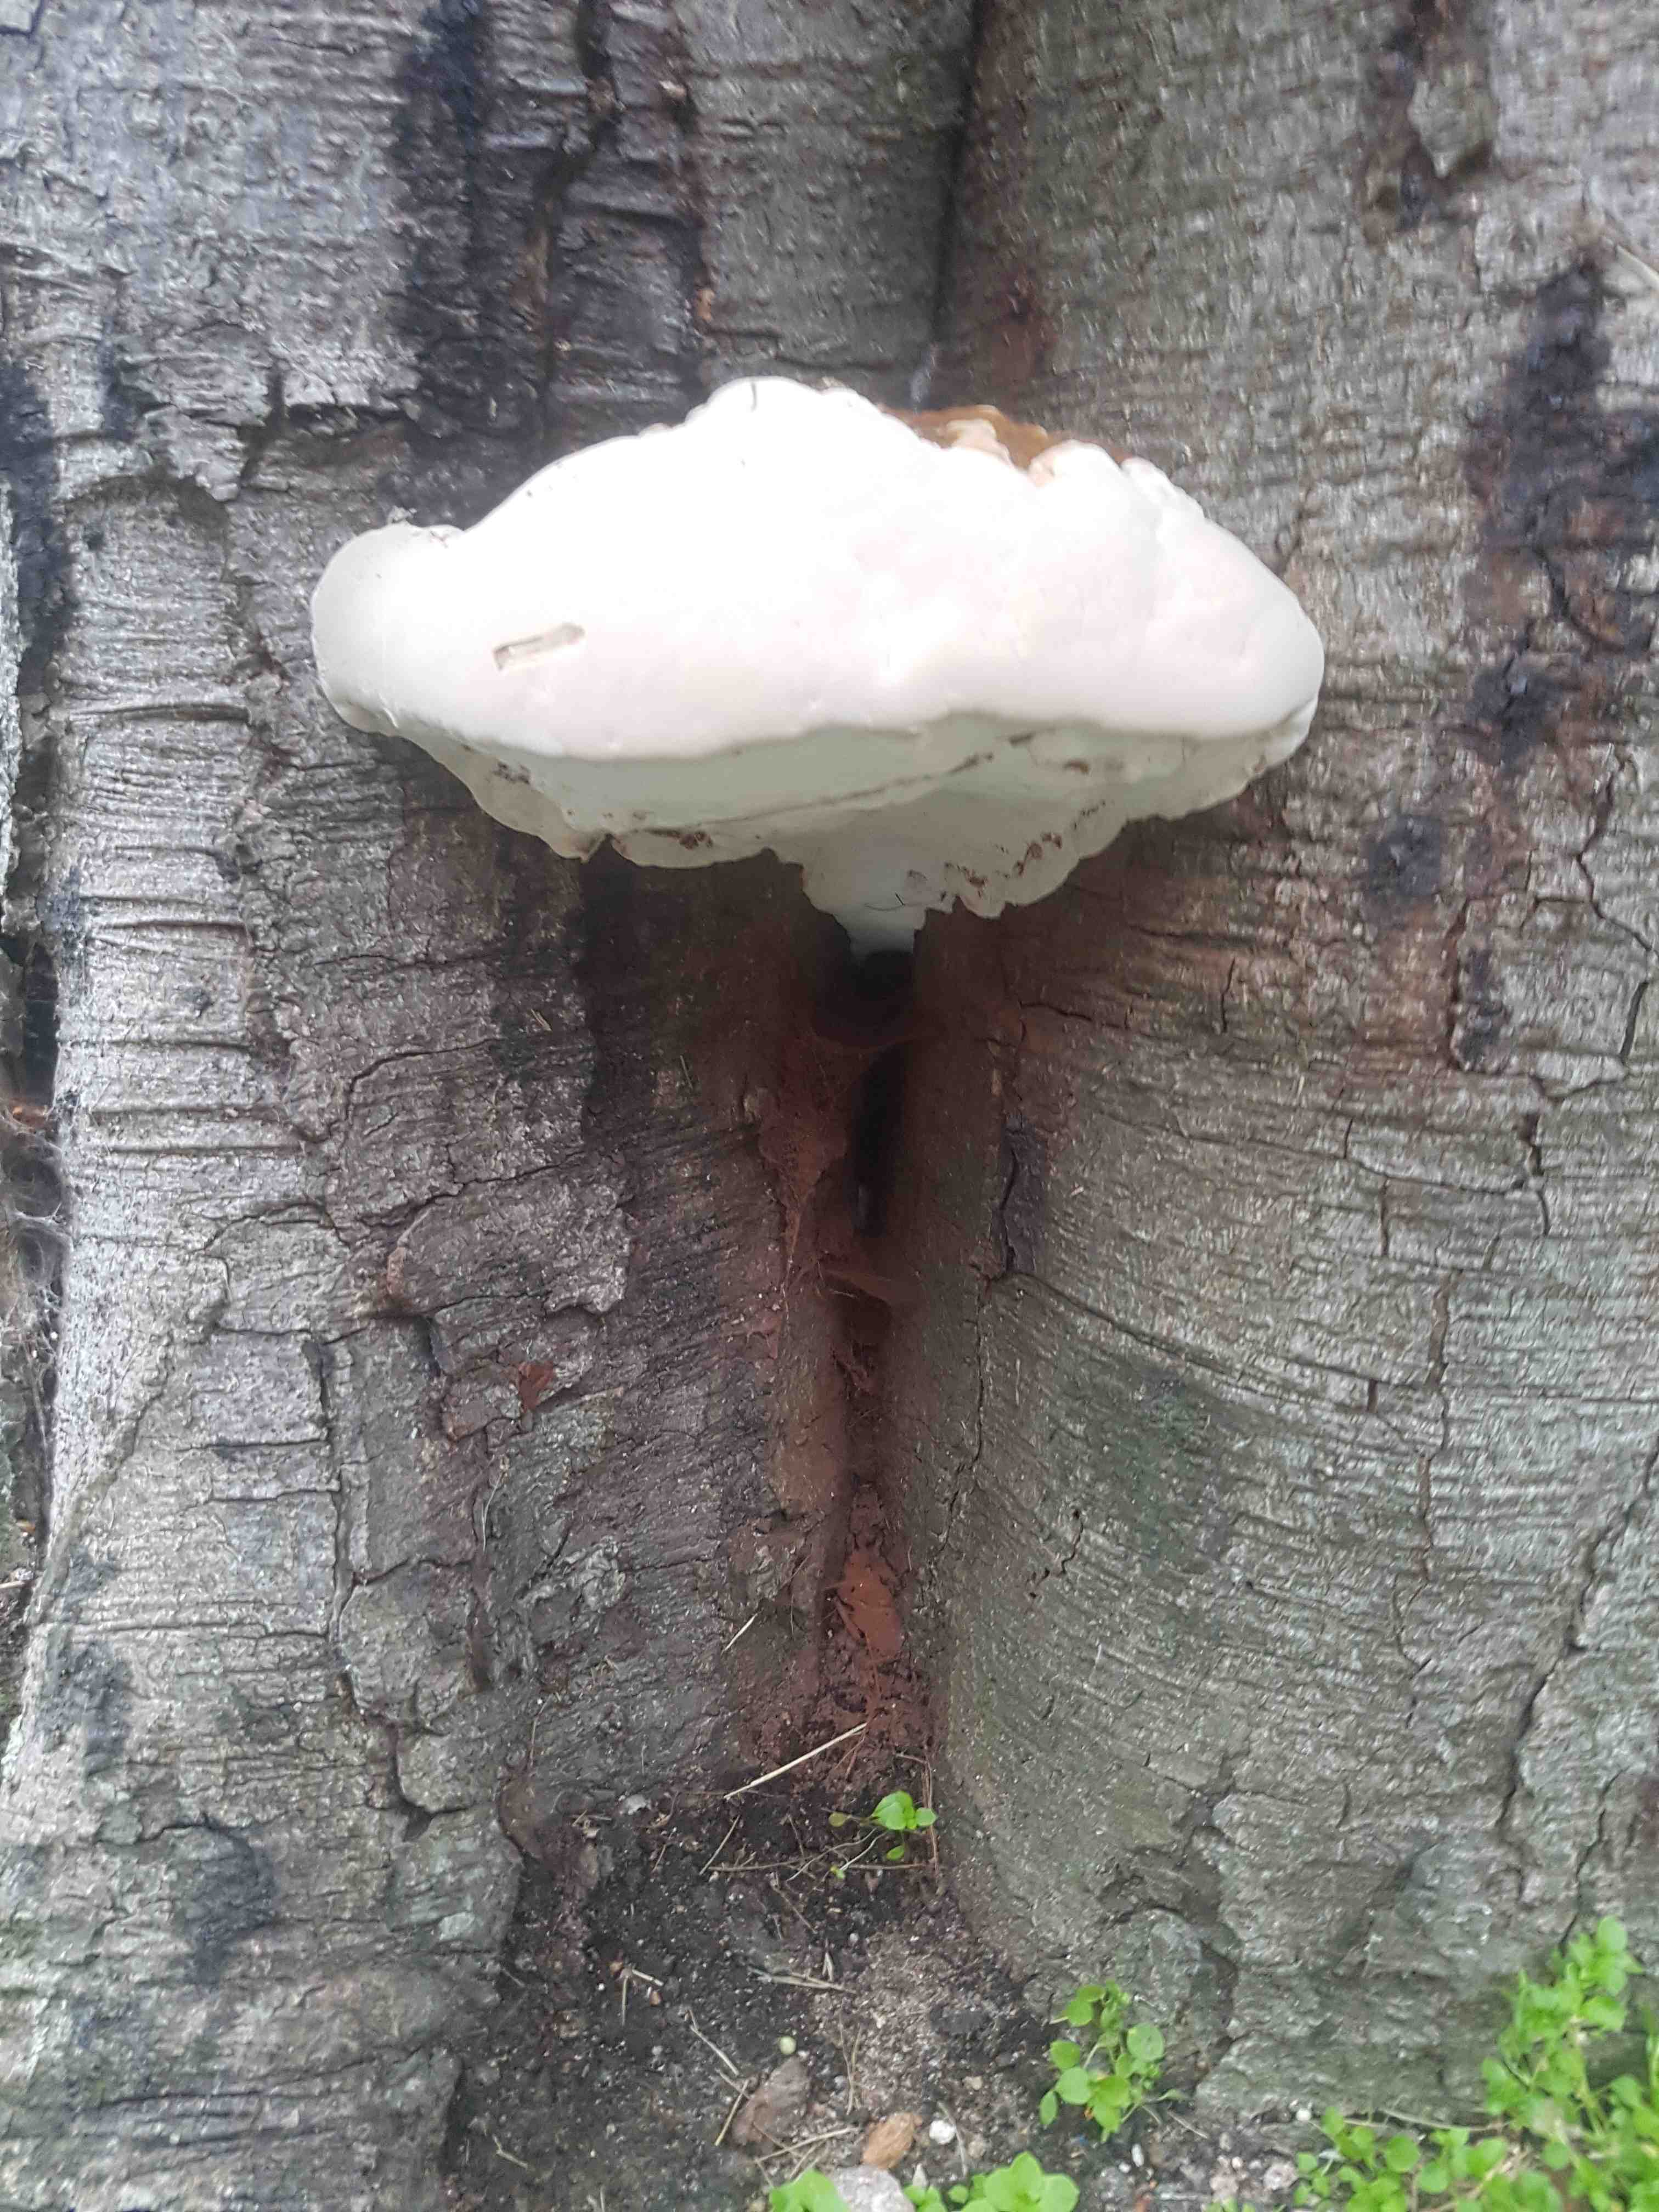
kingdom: Fungi
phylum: Basidiomycota
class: Agaricomycetes
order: Polyporales
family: Polyporaceae
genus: Ganoderma
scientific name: Ganoderma adspersum
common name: grov lakporesvamp
